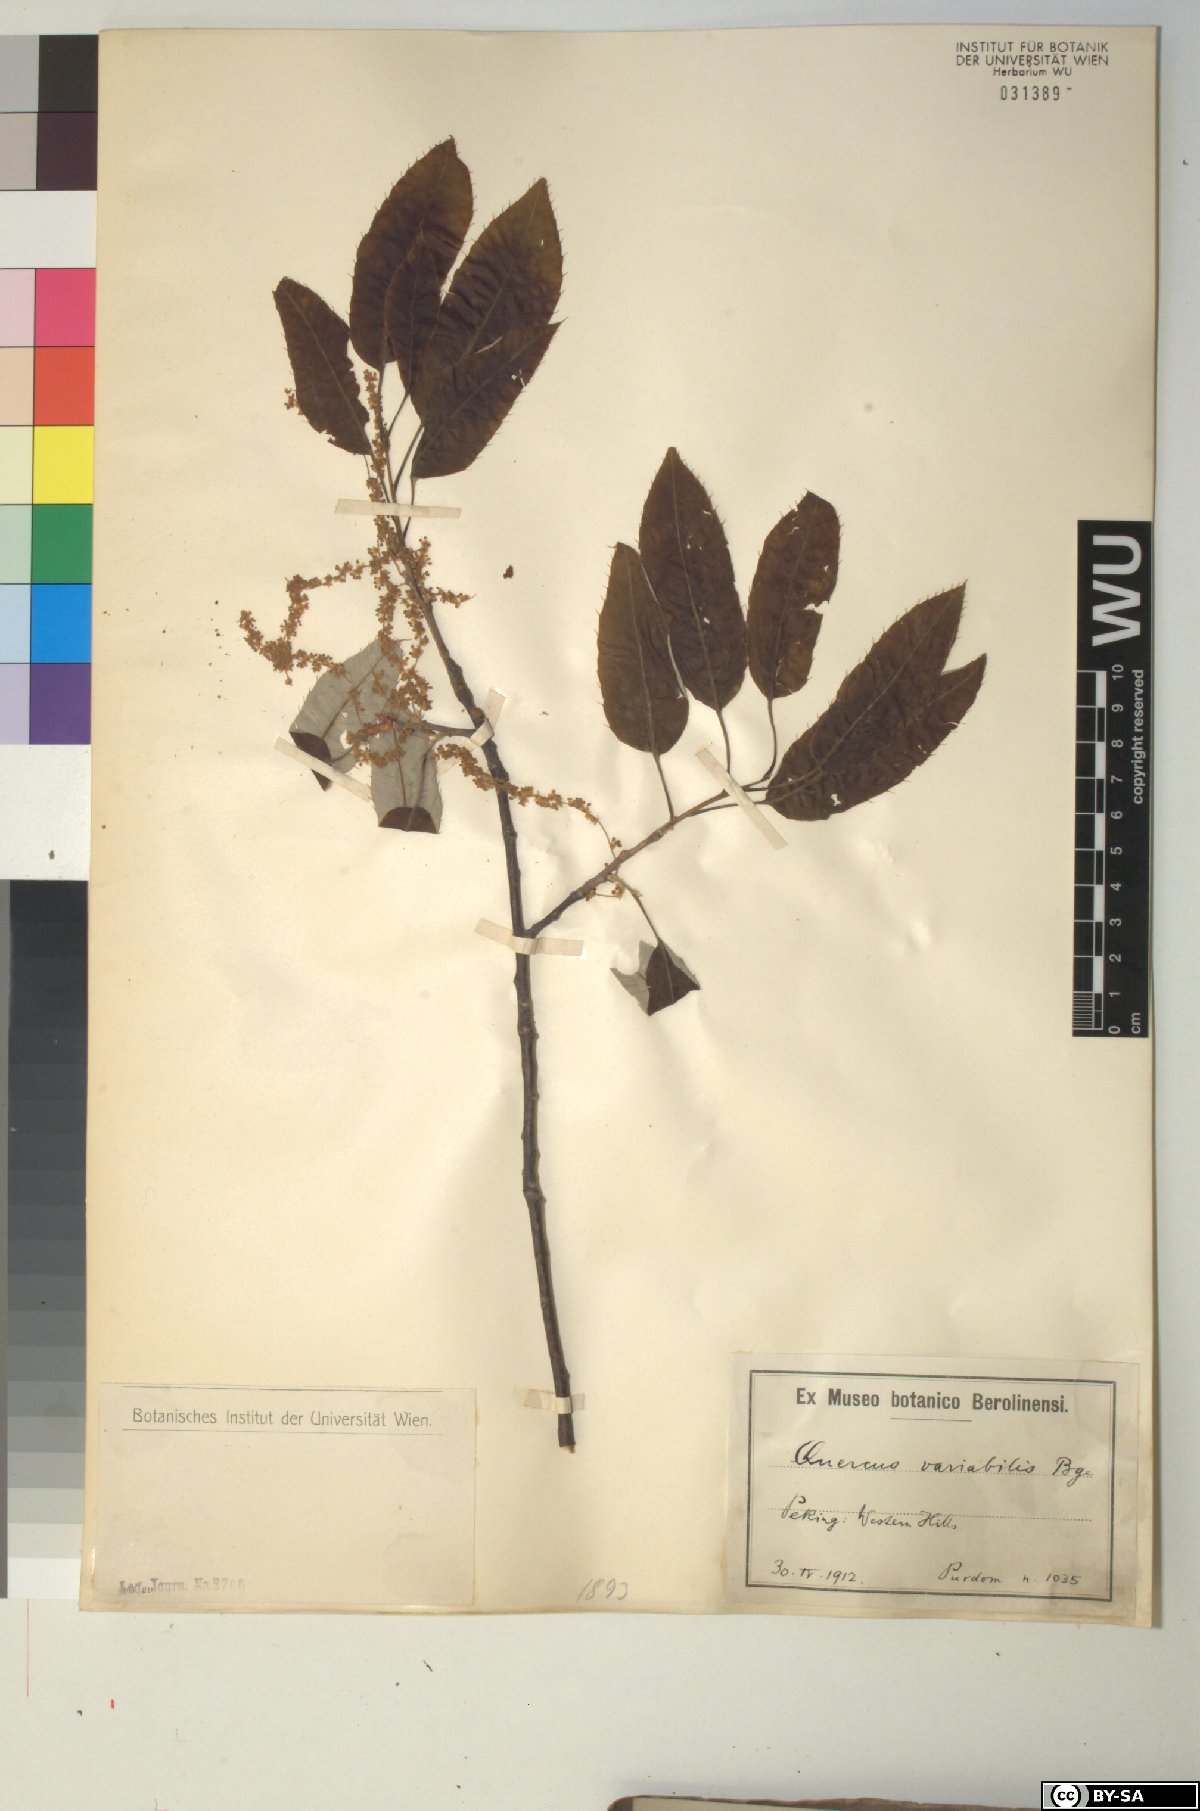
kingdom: Plantae
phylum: Tracheophyta
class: Magnoliopsida
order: Fagales
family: Fagaceae
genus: Quercus
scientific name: Quercus variabilis
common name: Chinese cork oak
